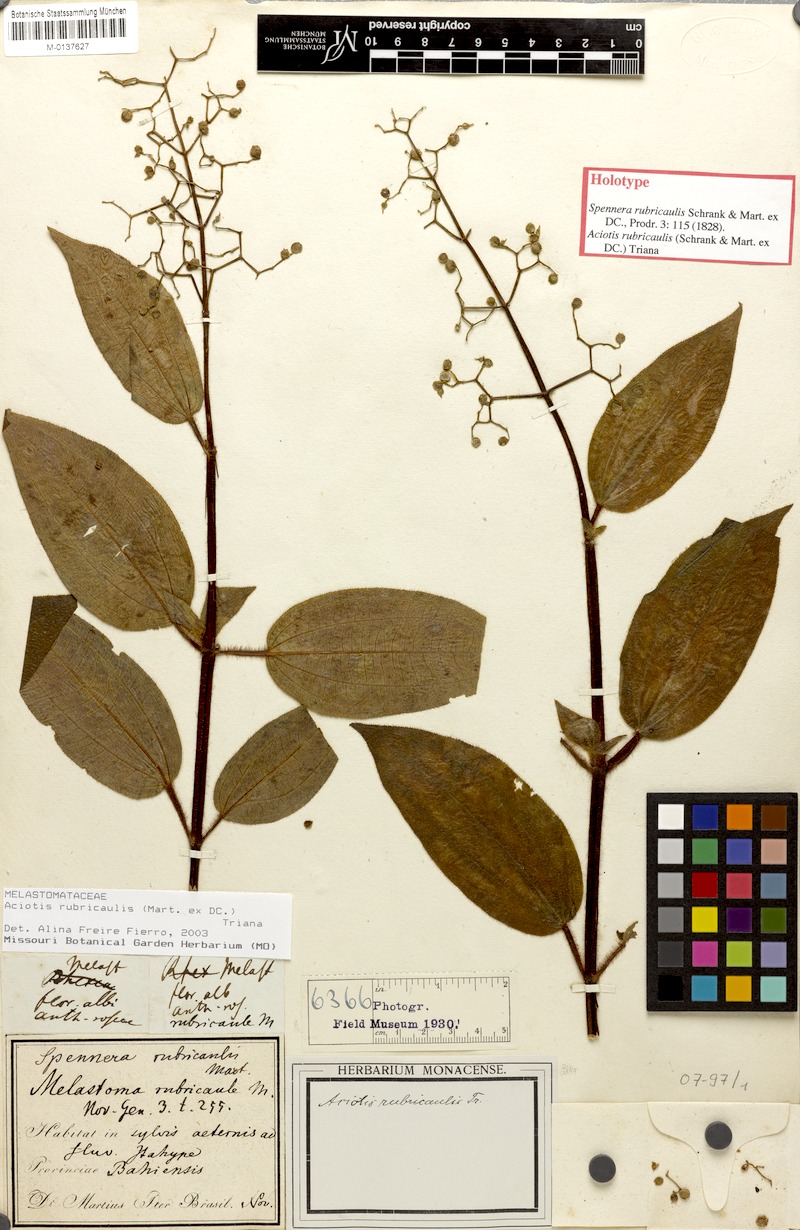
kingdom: Plantae
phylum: Tracheophyta
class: Magnoliopsida
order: Myrtales
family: Melastomataceae
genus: Aciotis
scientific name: Aciotis rubricaulis
